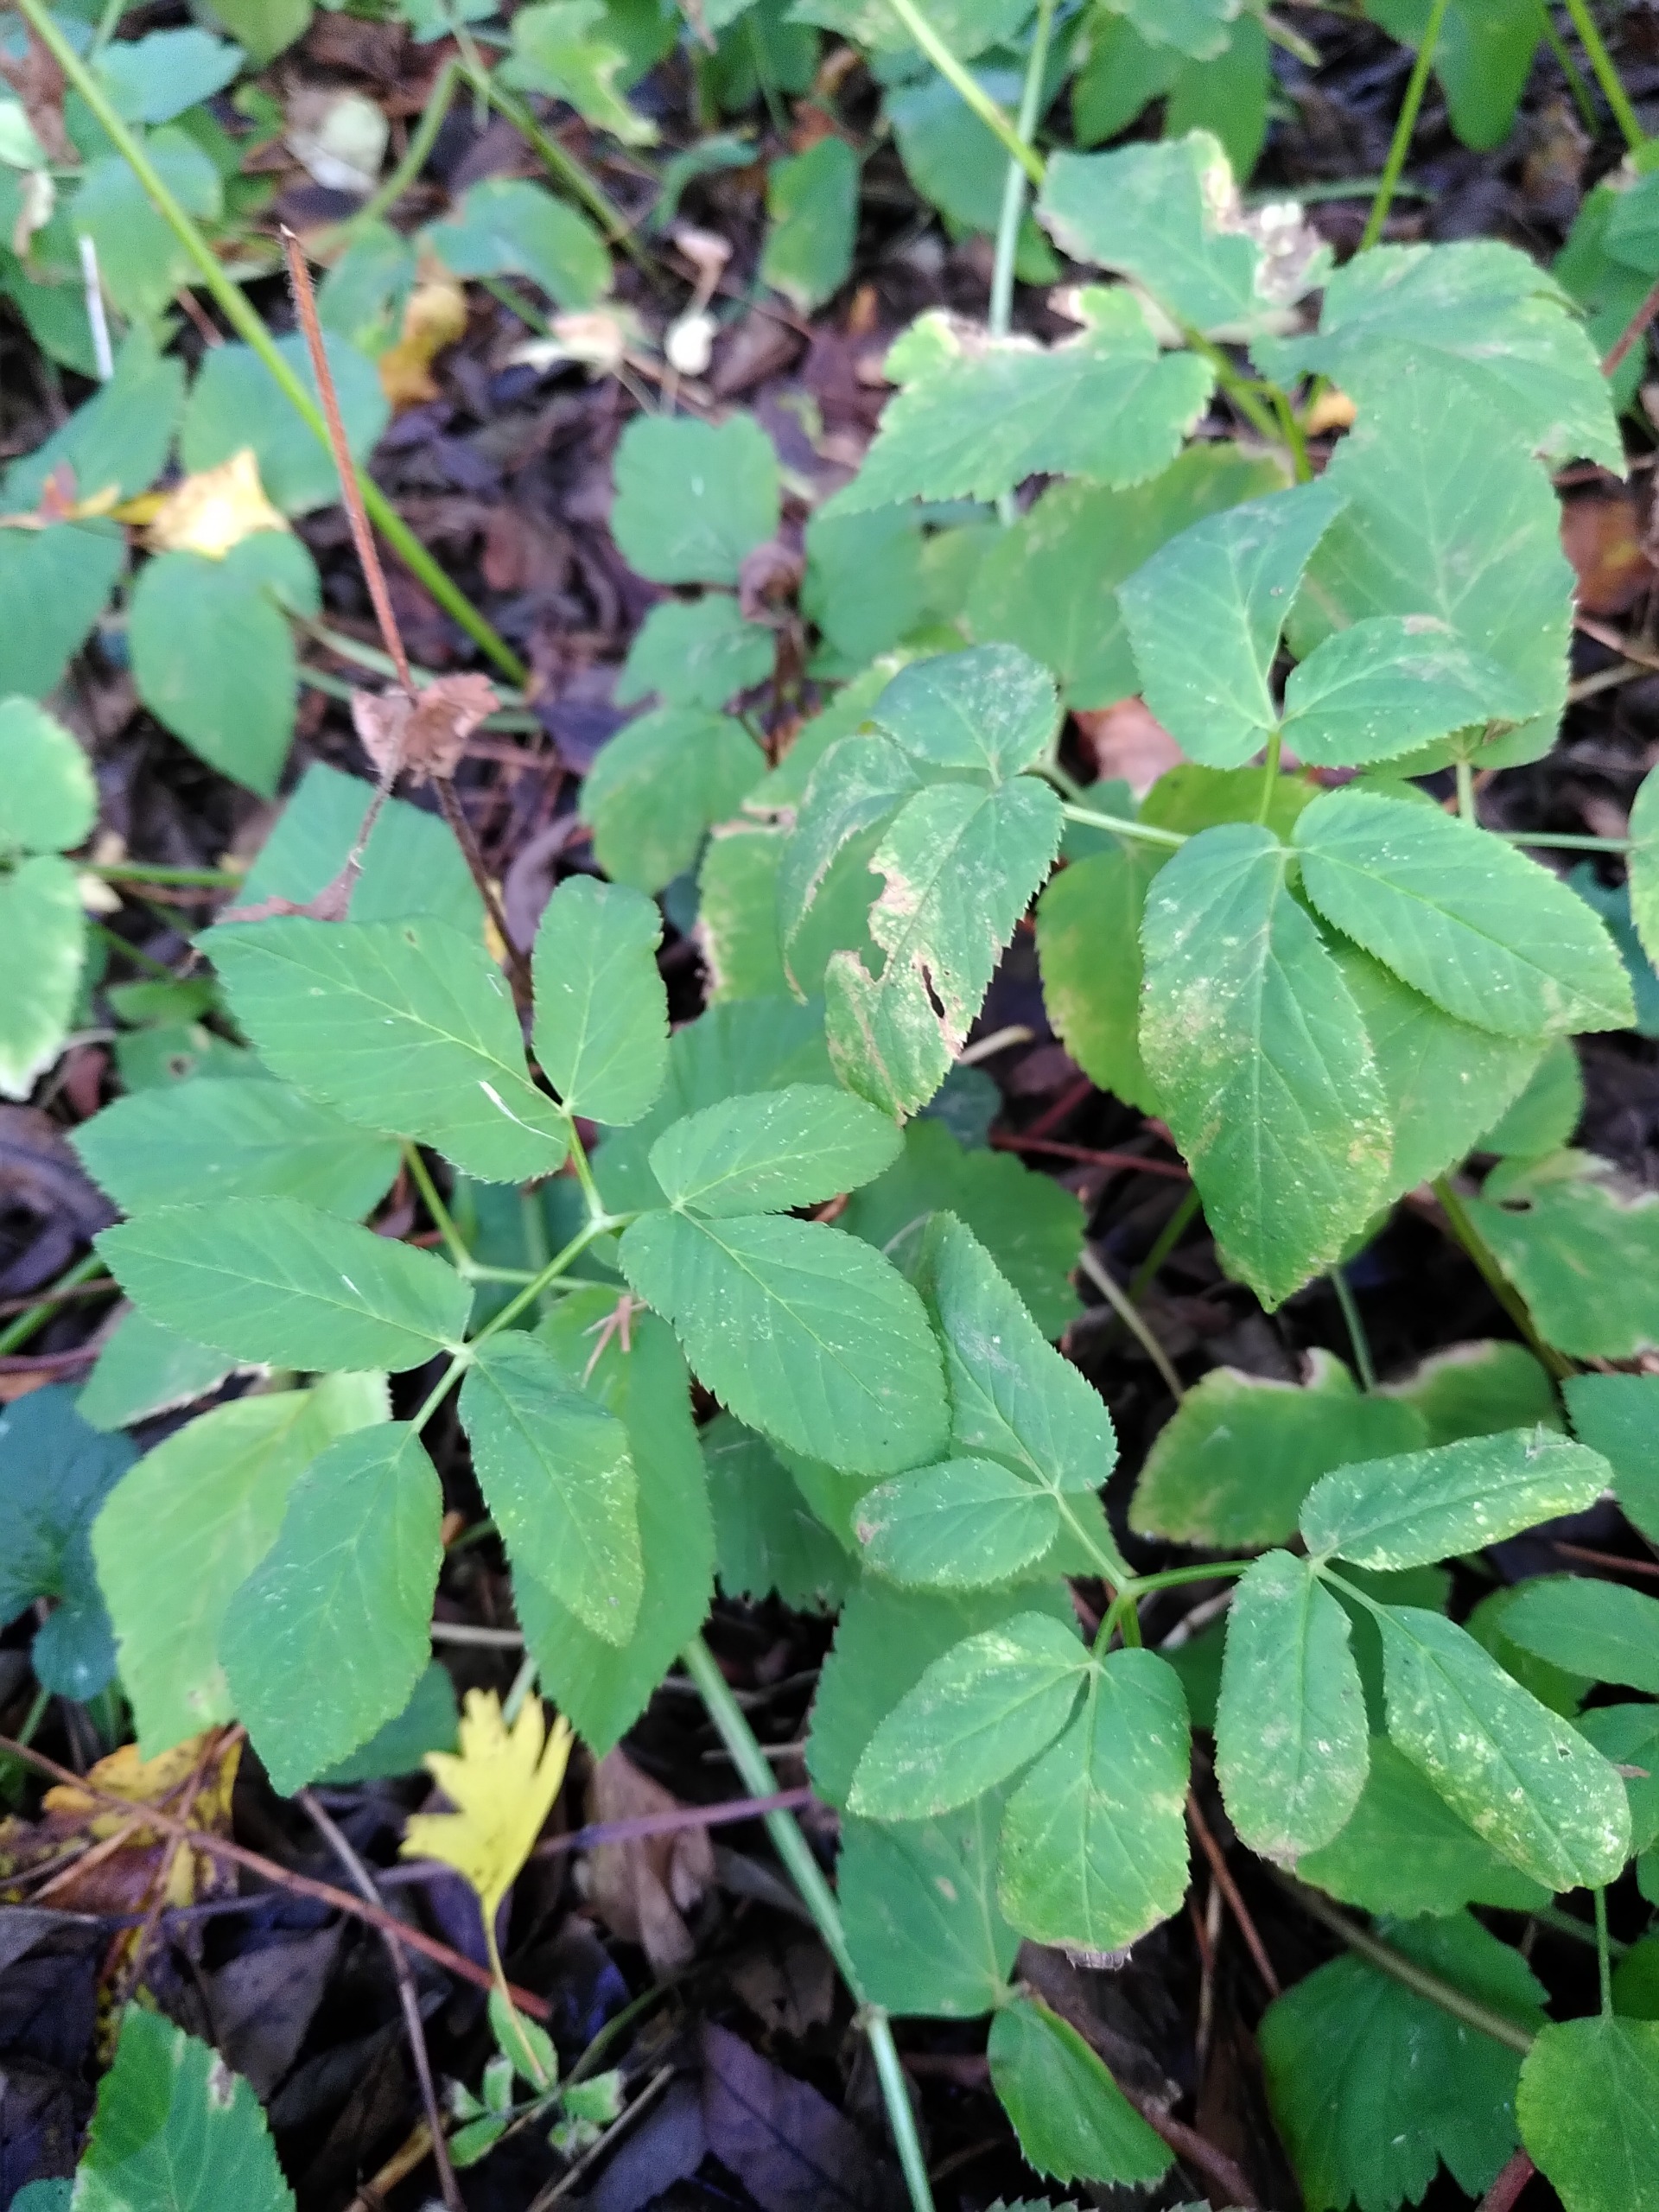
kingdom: Plantae
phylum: Tracheophyta
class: Magnoliopsida
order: Apiales
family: Apiaceae
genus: Aegopodium
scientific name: Aegopodium podagraria
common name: Skvalderkål
